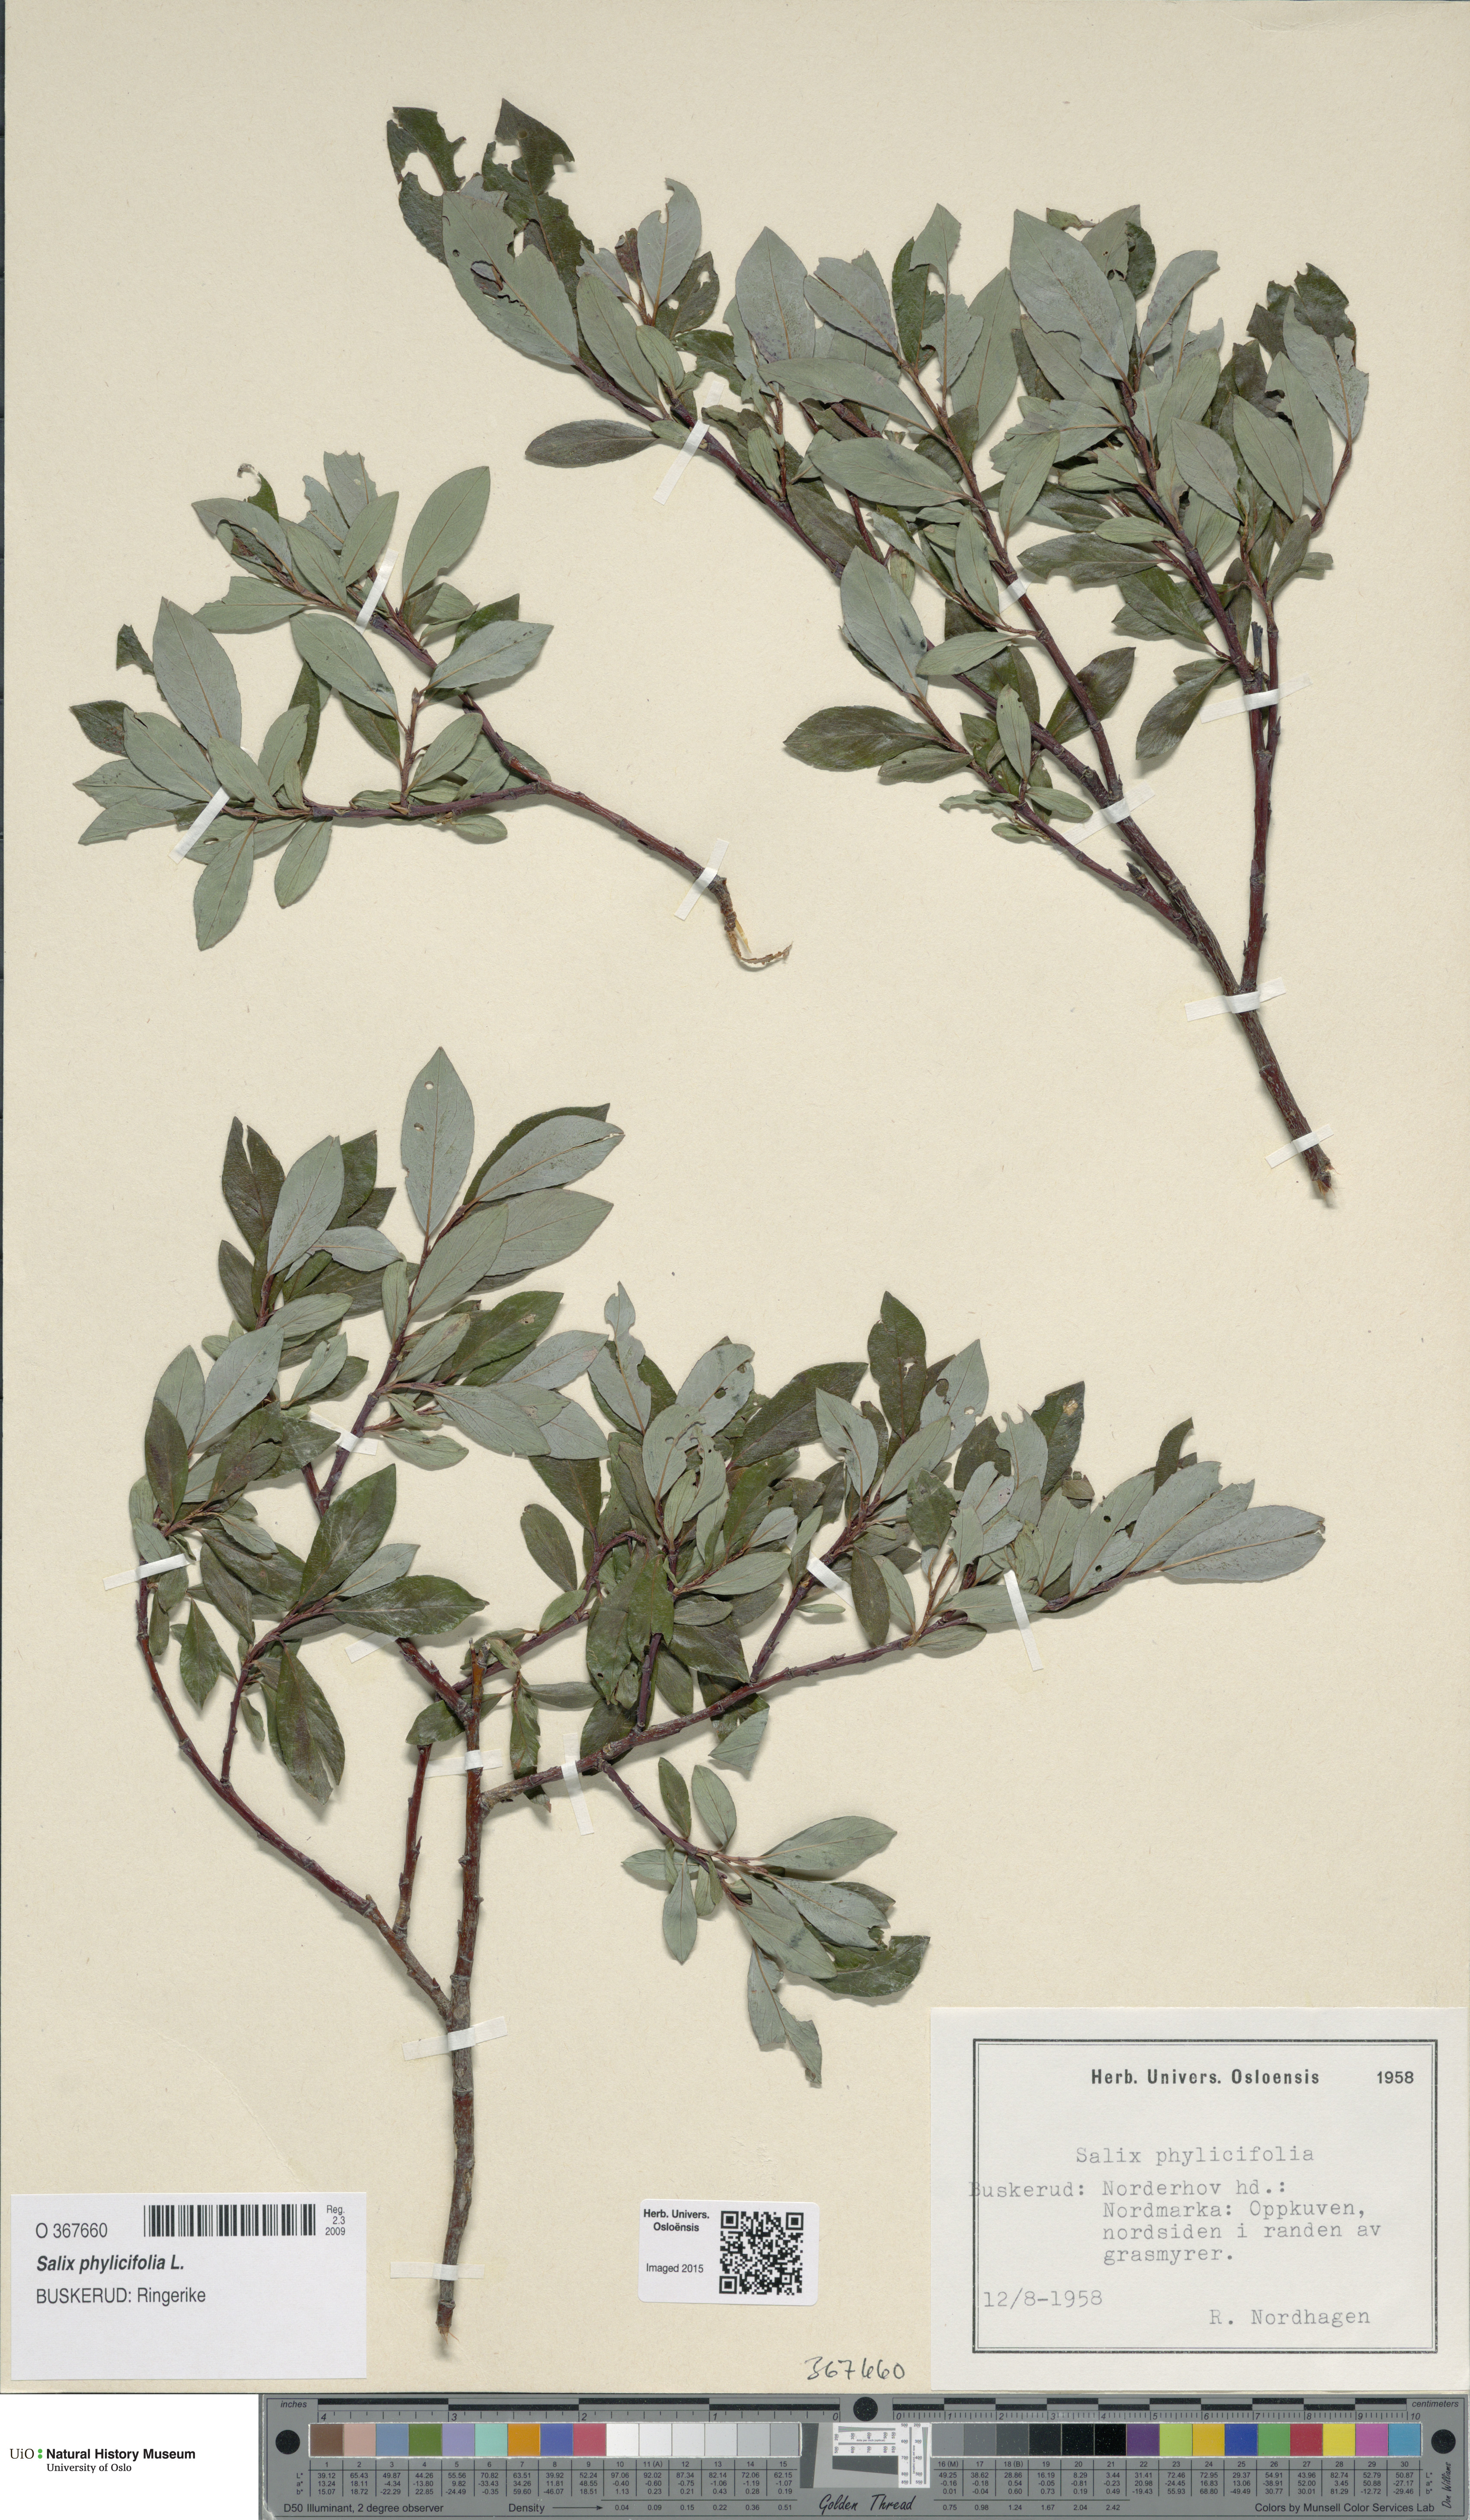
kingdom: Plantae
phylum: Tracheophyta
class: Magnoliopsida
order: Malpighiales
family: Salicaceae
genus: Salix
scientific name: Salix phylicifolia
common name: Tea-leaved willow
